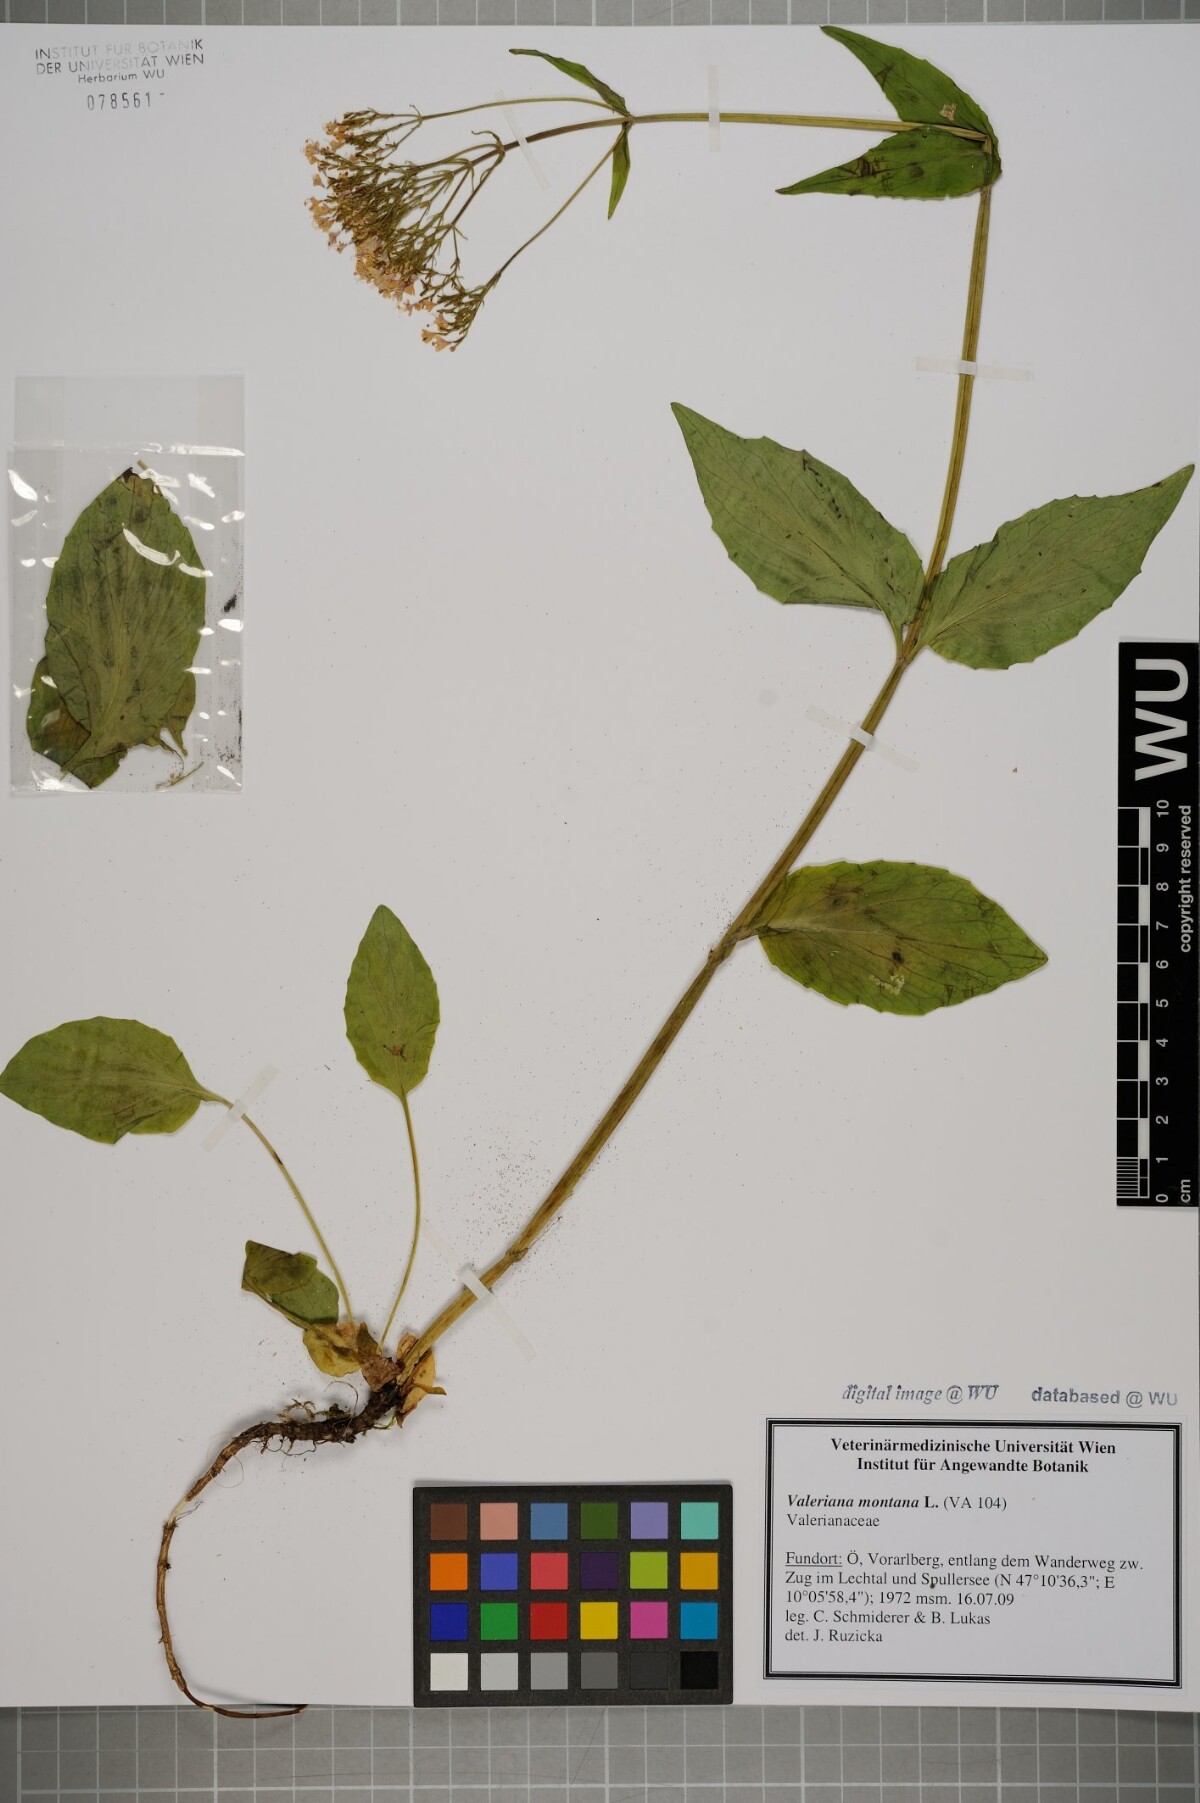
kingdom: Plantae
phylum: Tracheophyta
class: Magnoliopsida
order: Dipsacales
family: Caprifoliaceae
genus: Valeriana
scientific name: Valeriana montana
